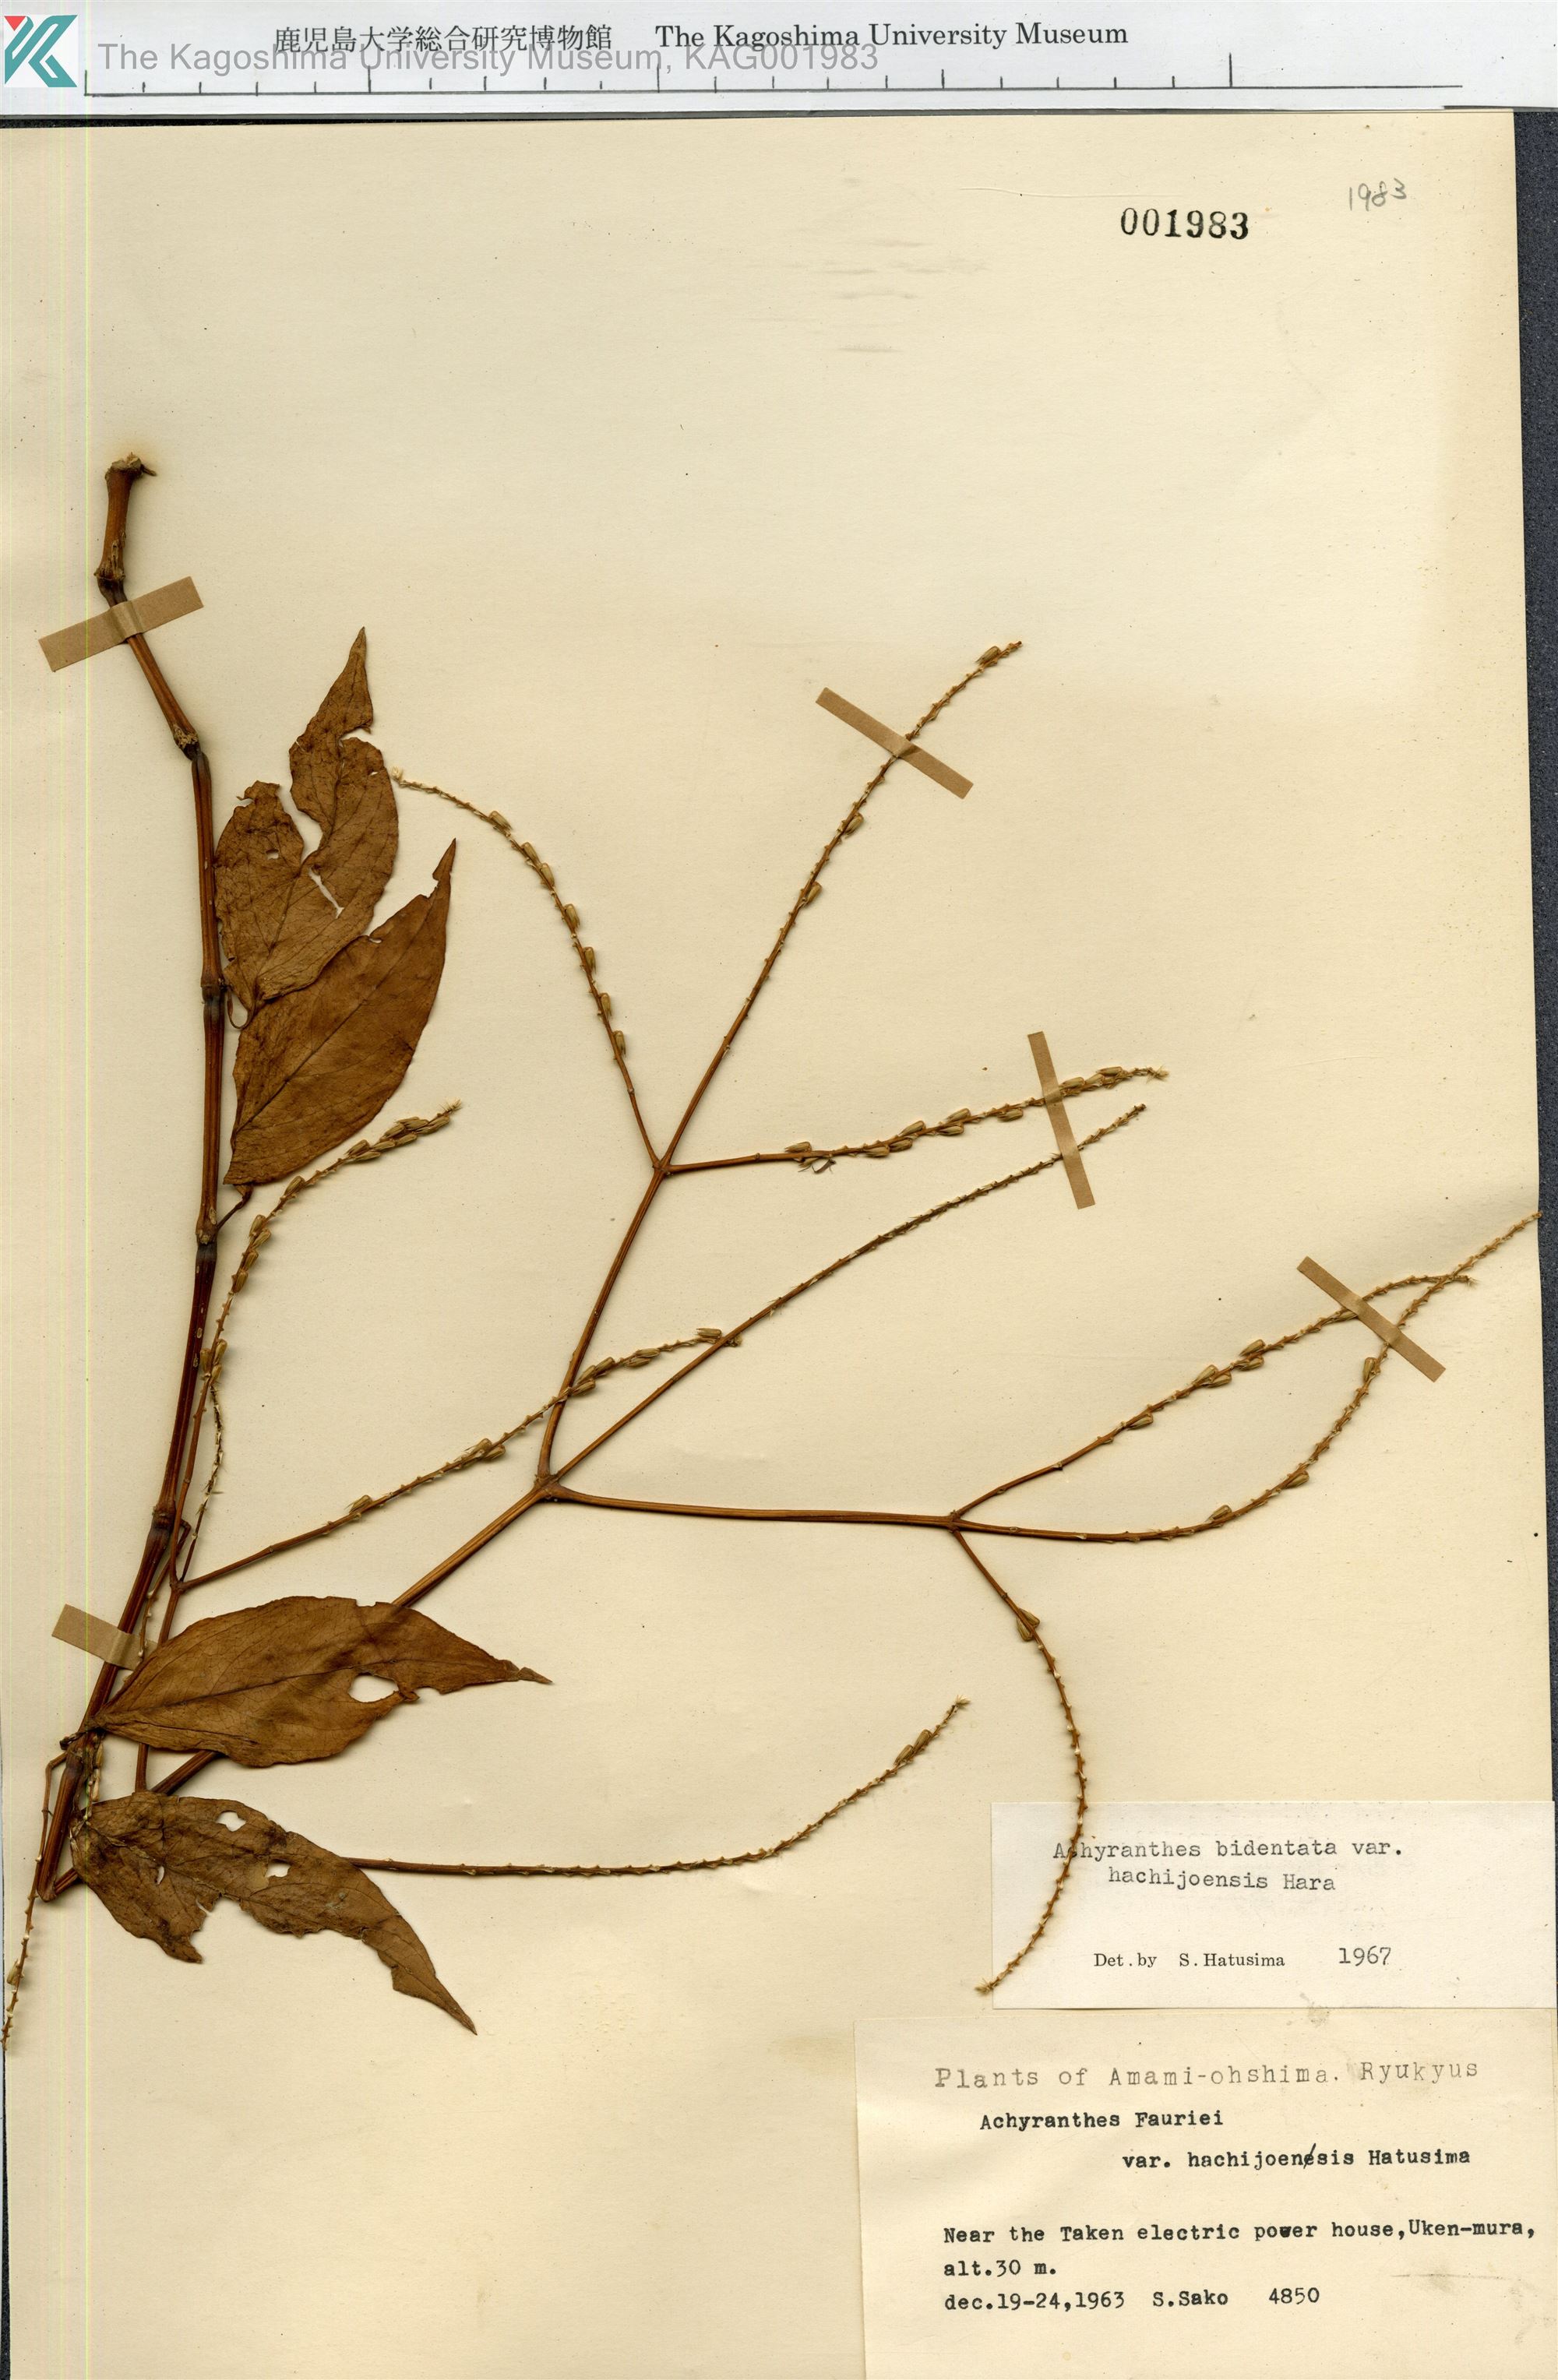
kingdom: Plantae
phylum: Tracheophyta
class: Magnoliopsida
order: Caryophyllales
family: Amaranthaceae
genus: Achyranthes
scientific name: Achyranthes bidentata
